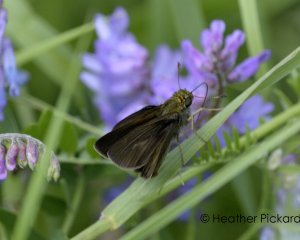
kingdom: Animalia
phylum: Arthropoda
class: Insecta
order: Lepidoptera
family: Hesperiidae
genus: Euphyes
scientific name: Euphyes vestris
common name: Dun Skipper
